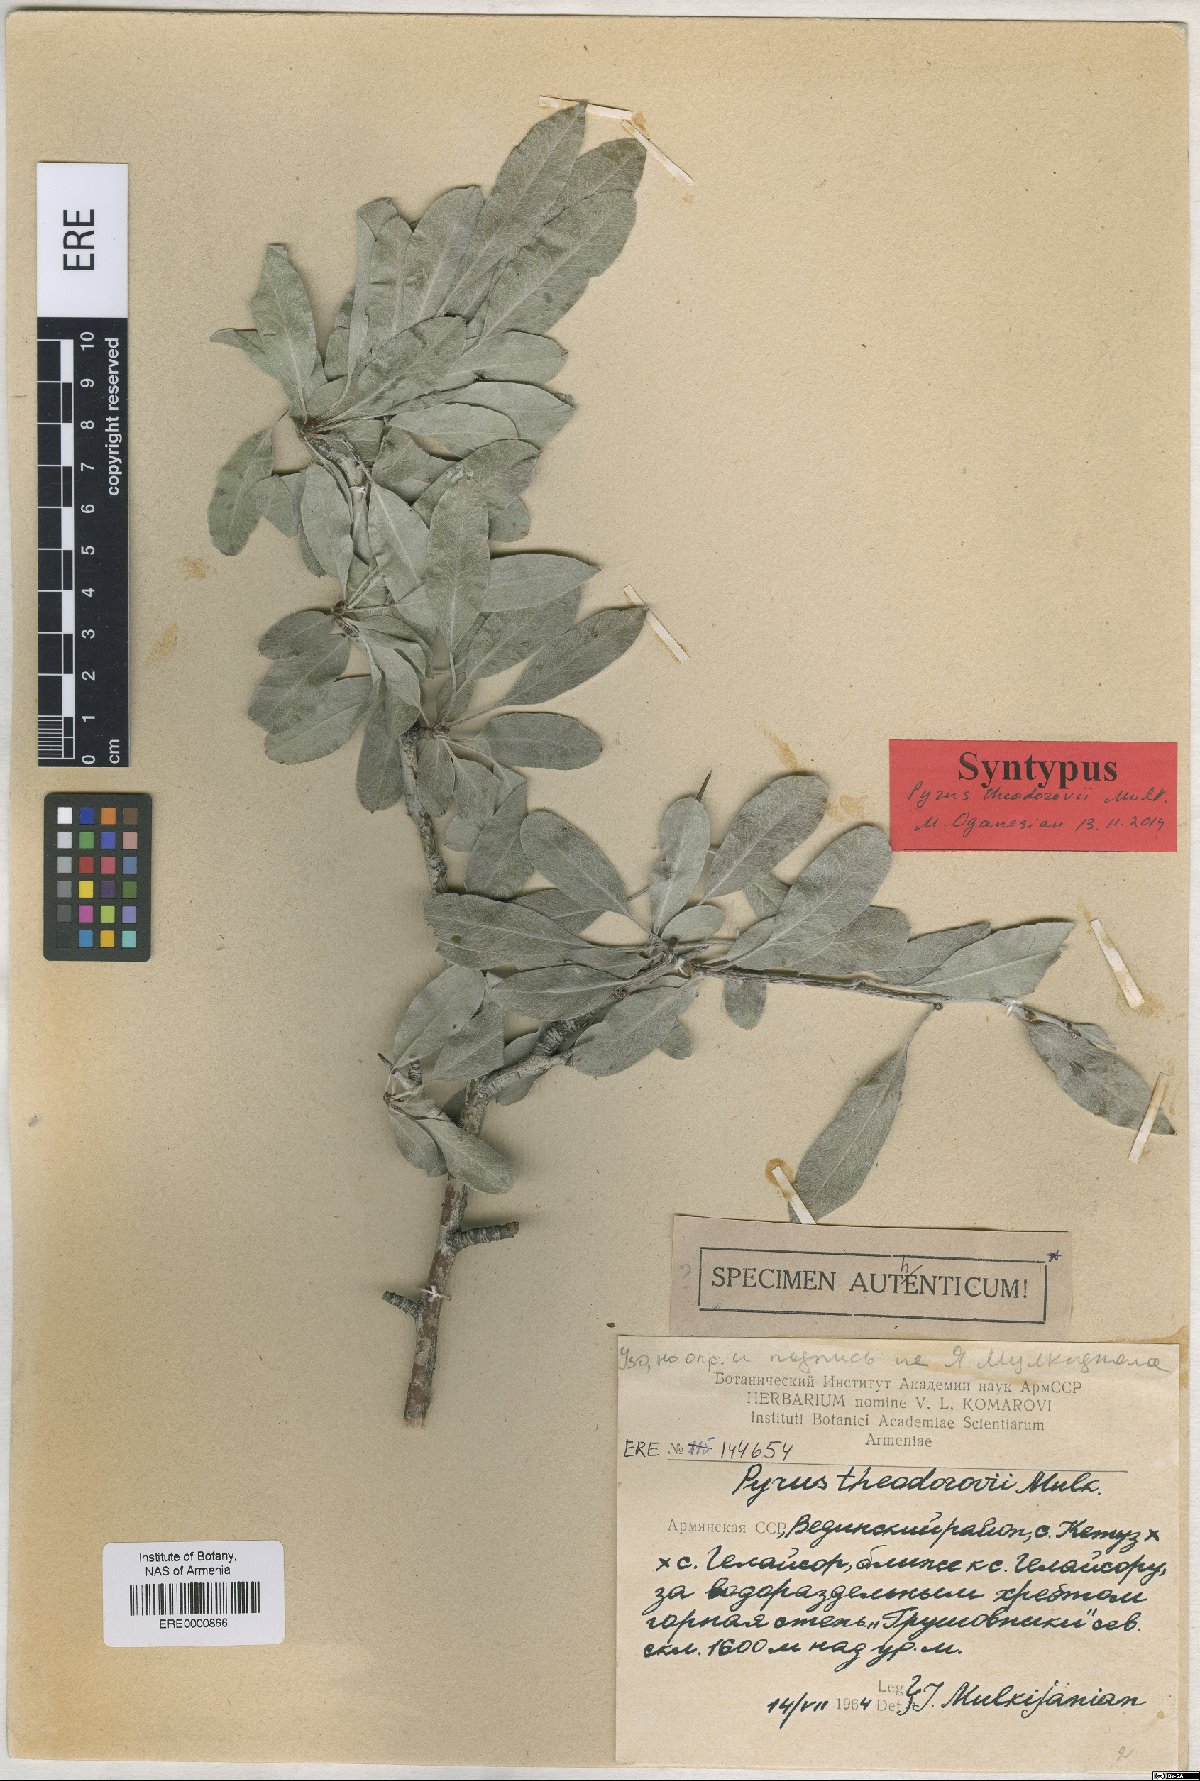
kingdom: Plantae
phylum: Tracheophyta
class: Magnoliopsida
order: Rosales
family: Rosaceae
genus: Pyrus
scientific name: Pyrus theodorovii
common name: Teodorov's pear
